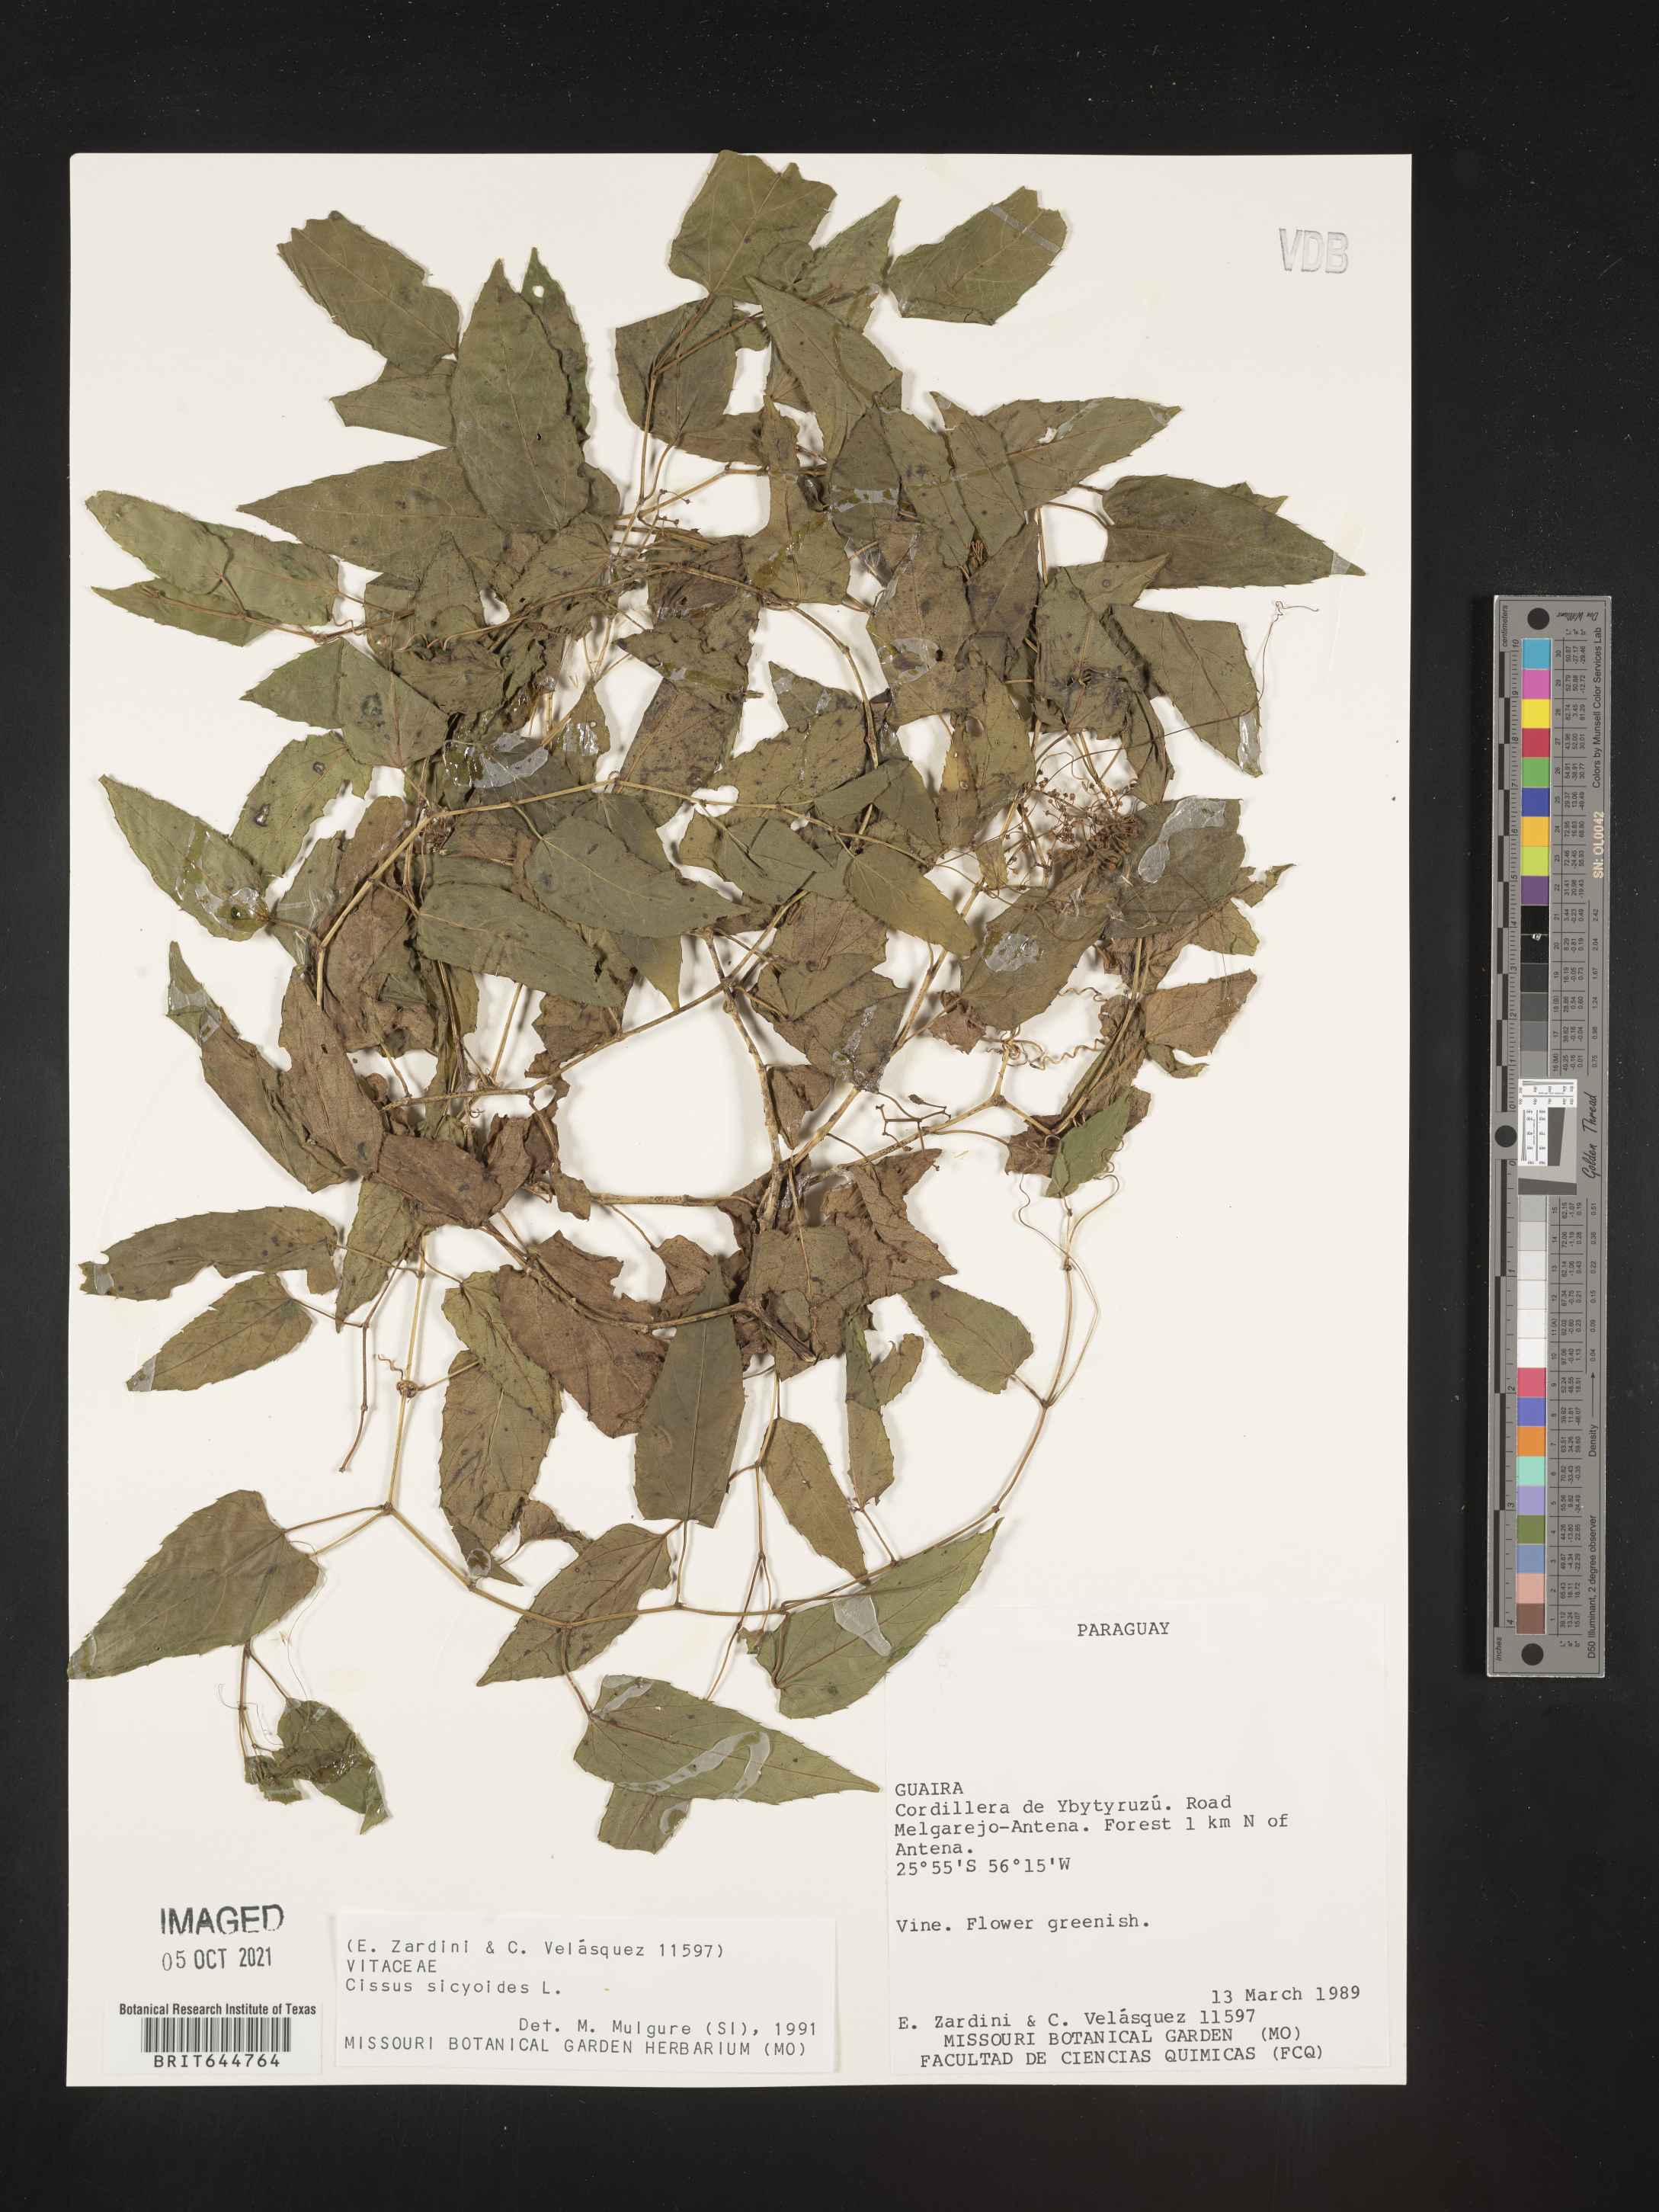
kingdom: Plantae
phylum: Tracheophyta
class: Magnoliopsida
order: Vitales
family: Vitaceae
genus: Cissus
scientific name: Cissus
